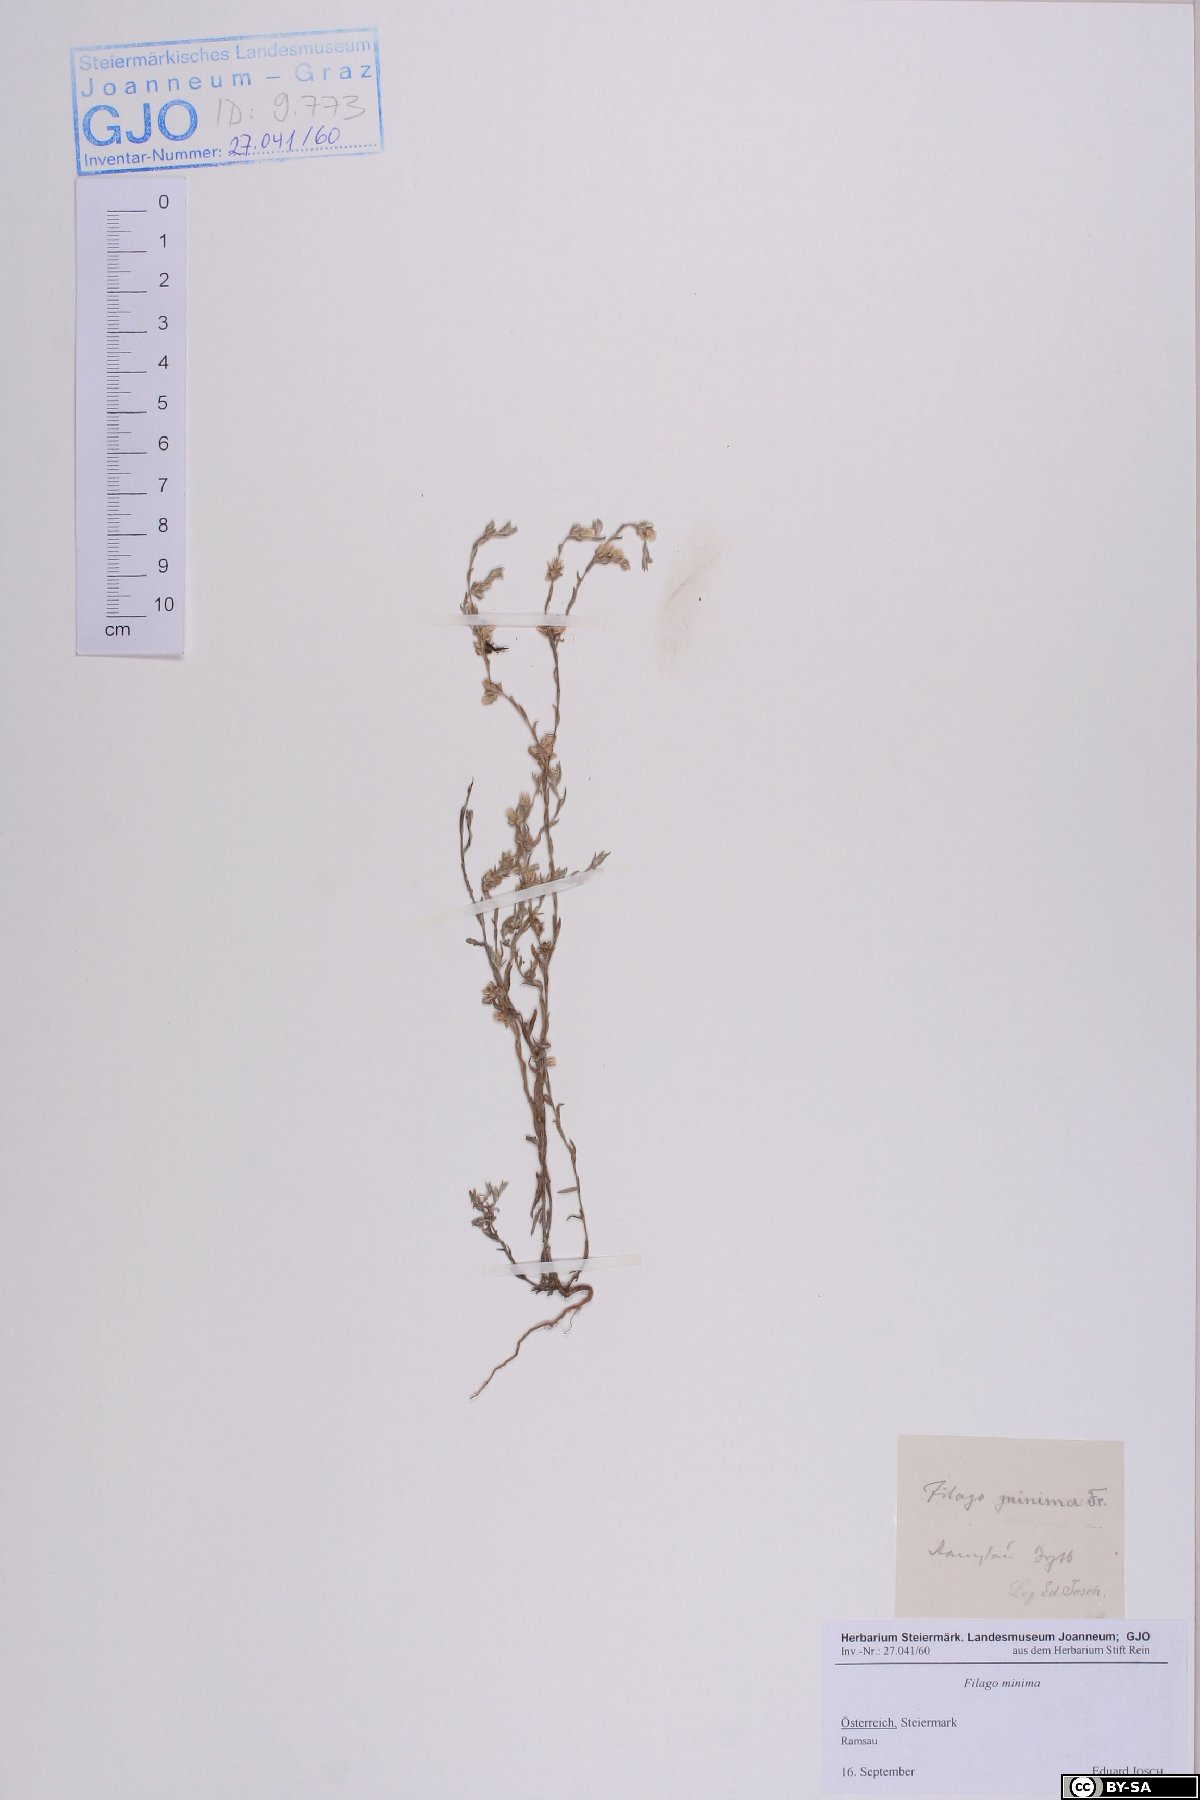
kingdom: Plantae
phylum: Tracheophyta
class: Magnoliopsida
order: Asterales
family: Asteraceae
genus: Logfia
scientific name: Logfia minima
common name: Little cottonrose
